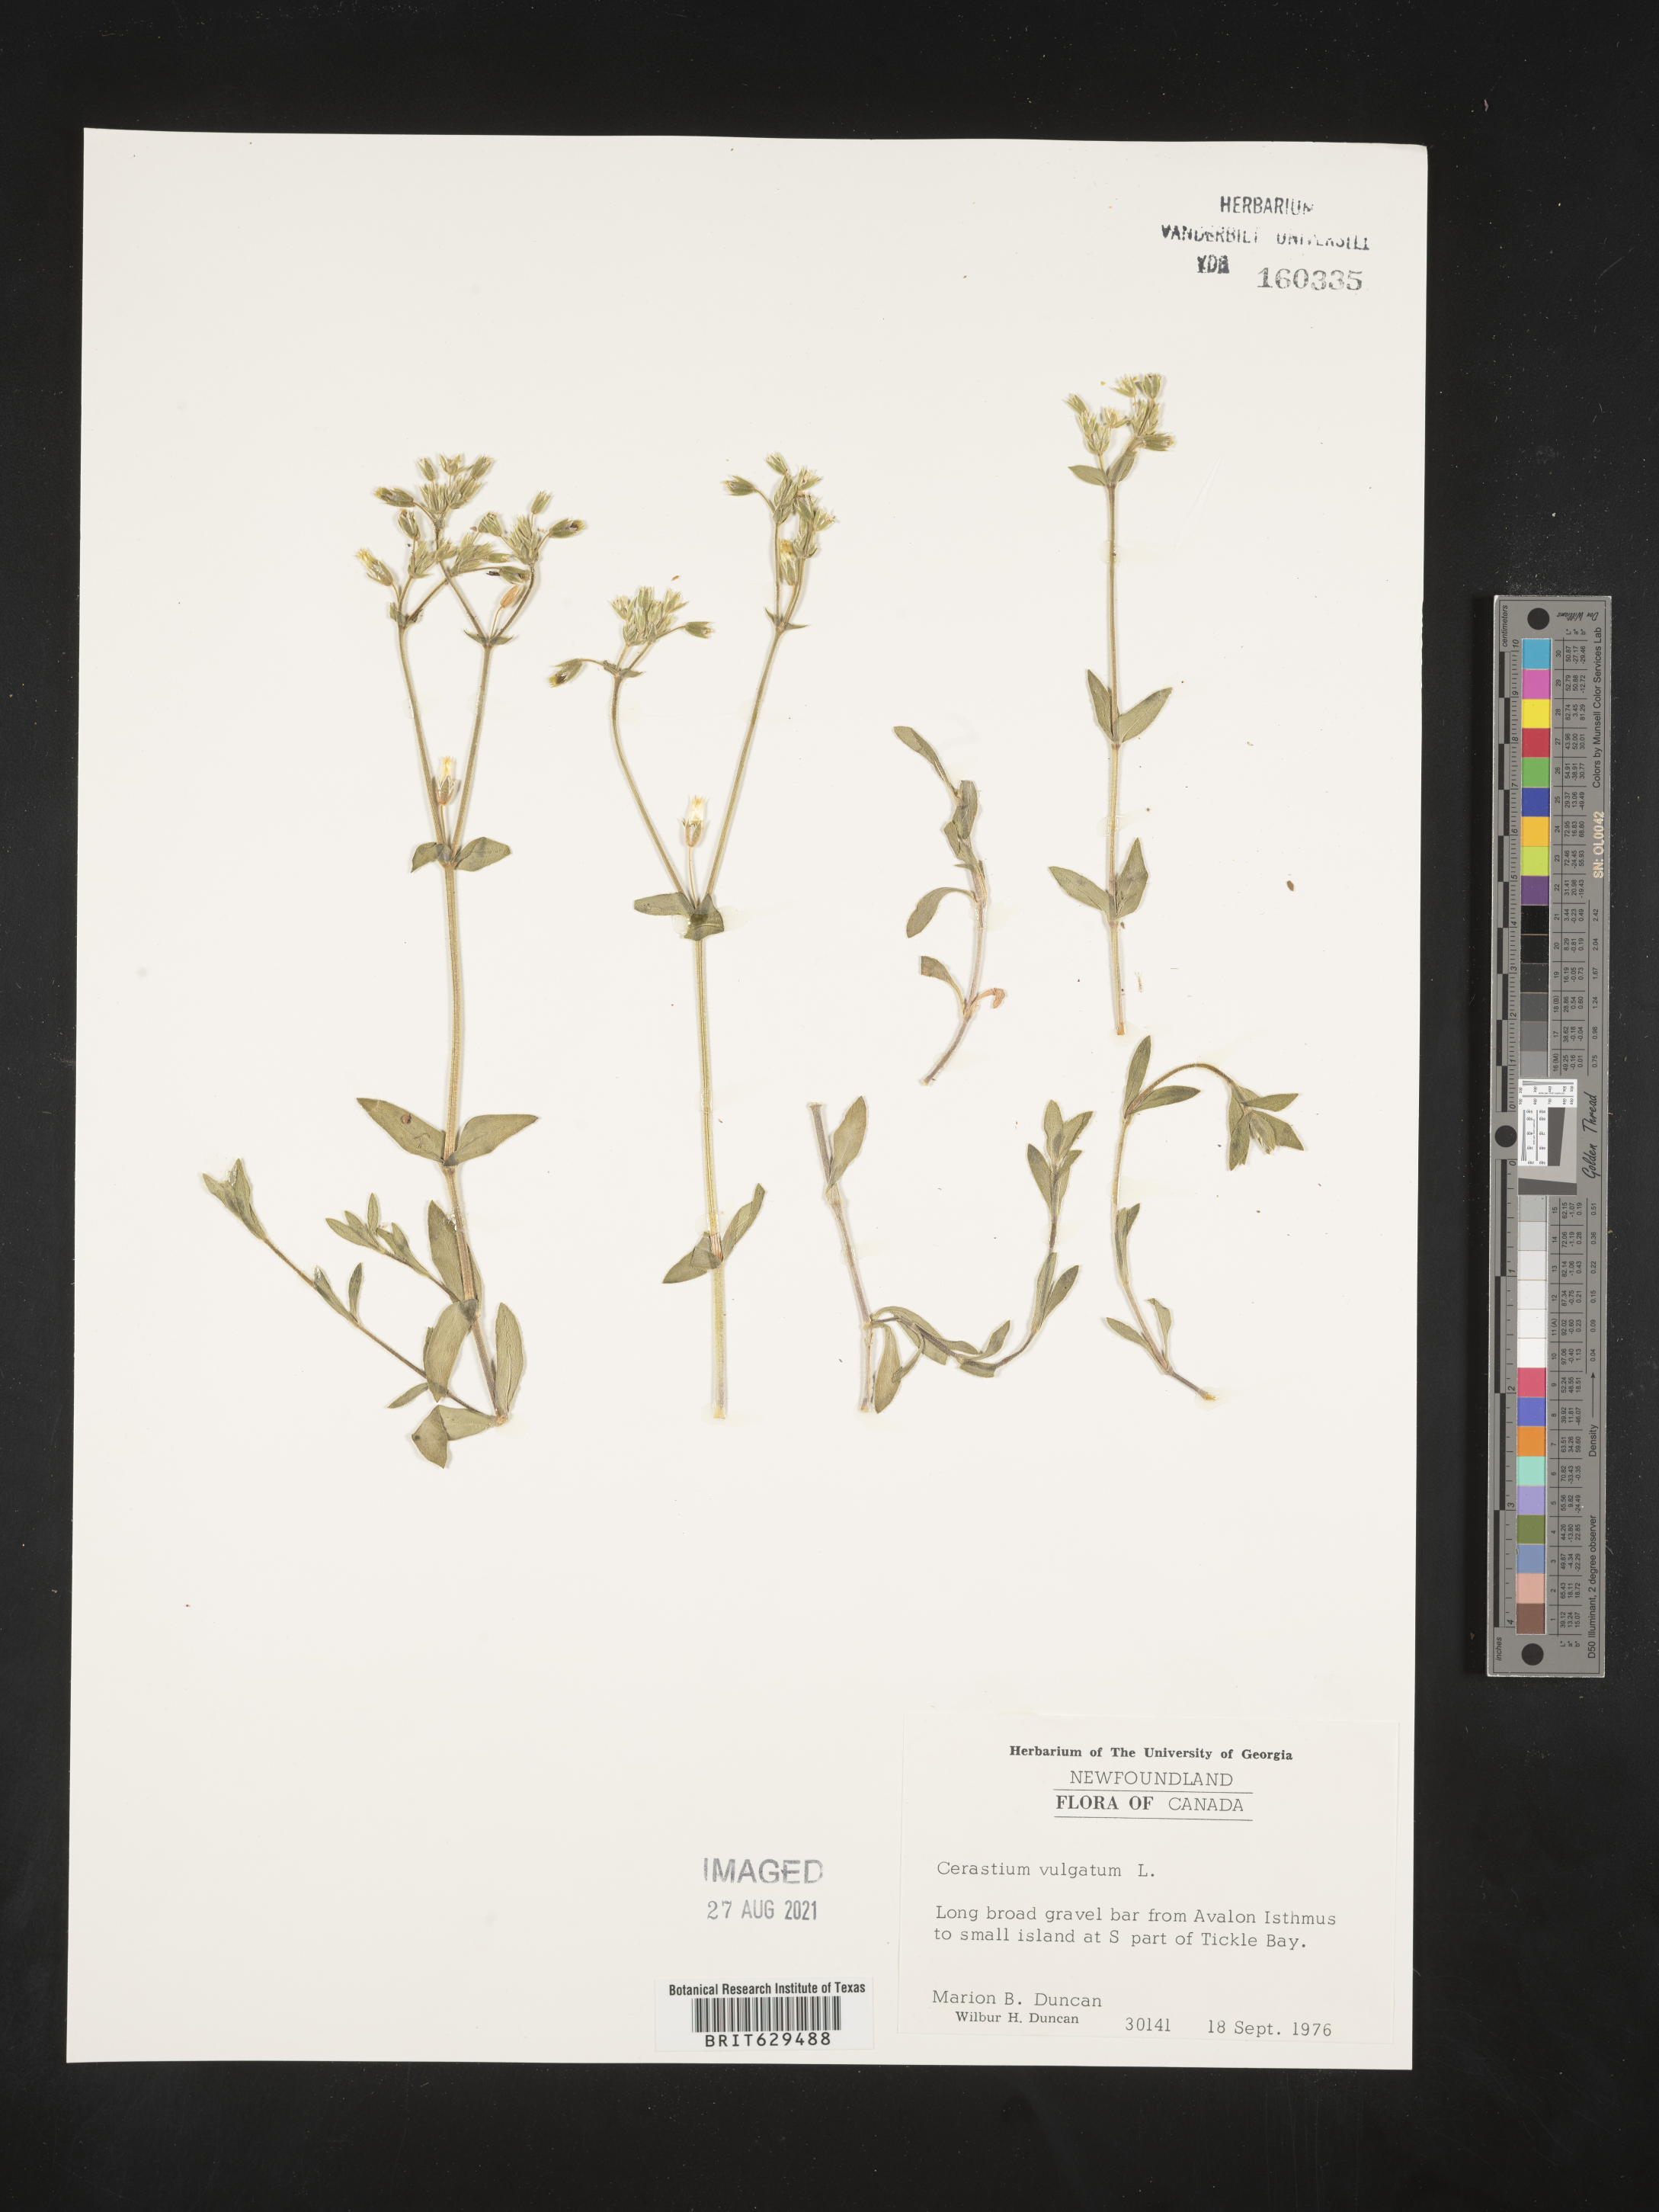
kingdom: Plantae
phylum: Tracheophyta
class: Magnoliopsida
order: Caryophyllales
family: Caryophyllaceae
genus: Cerastium
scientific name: Cerastium
